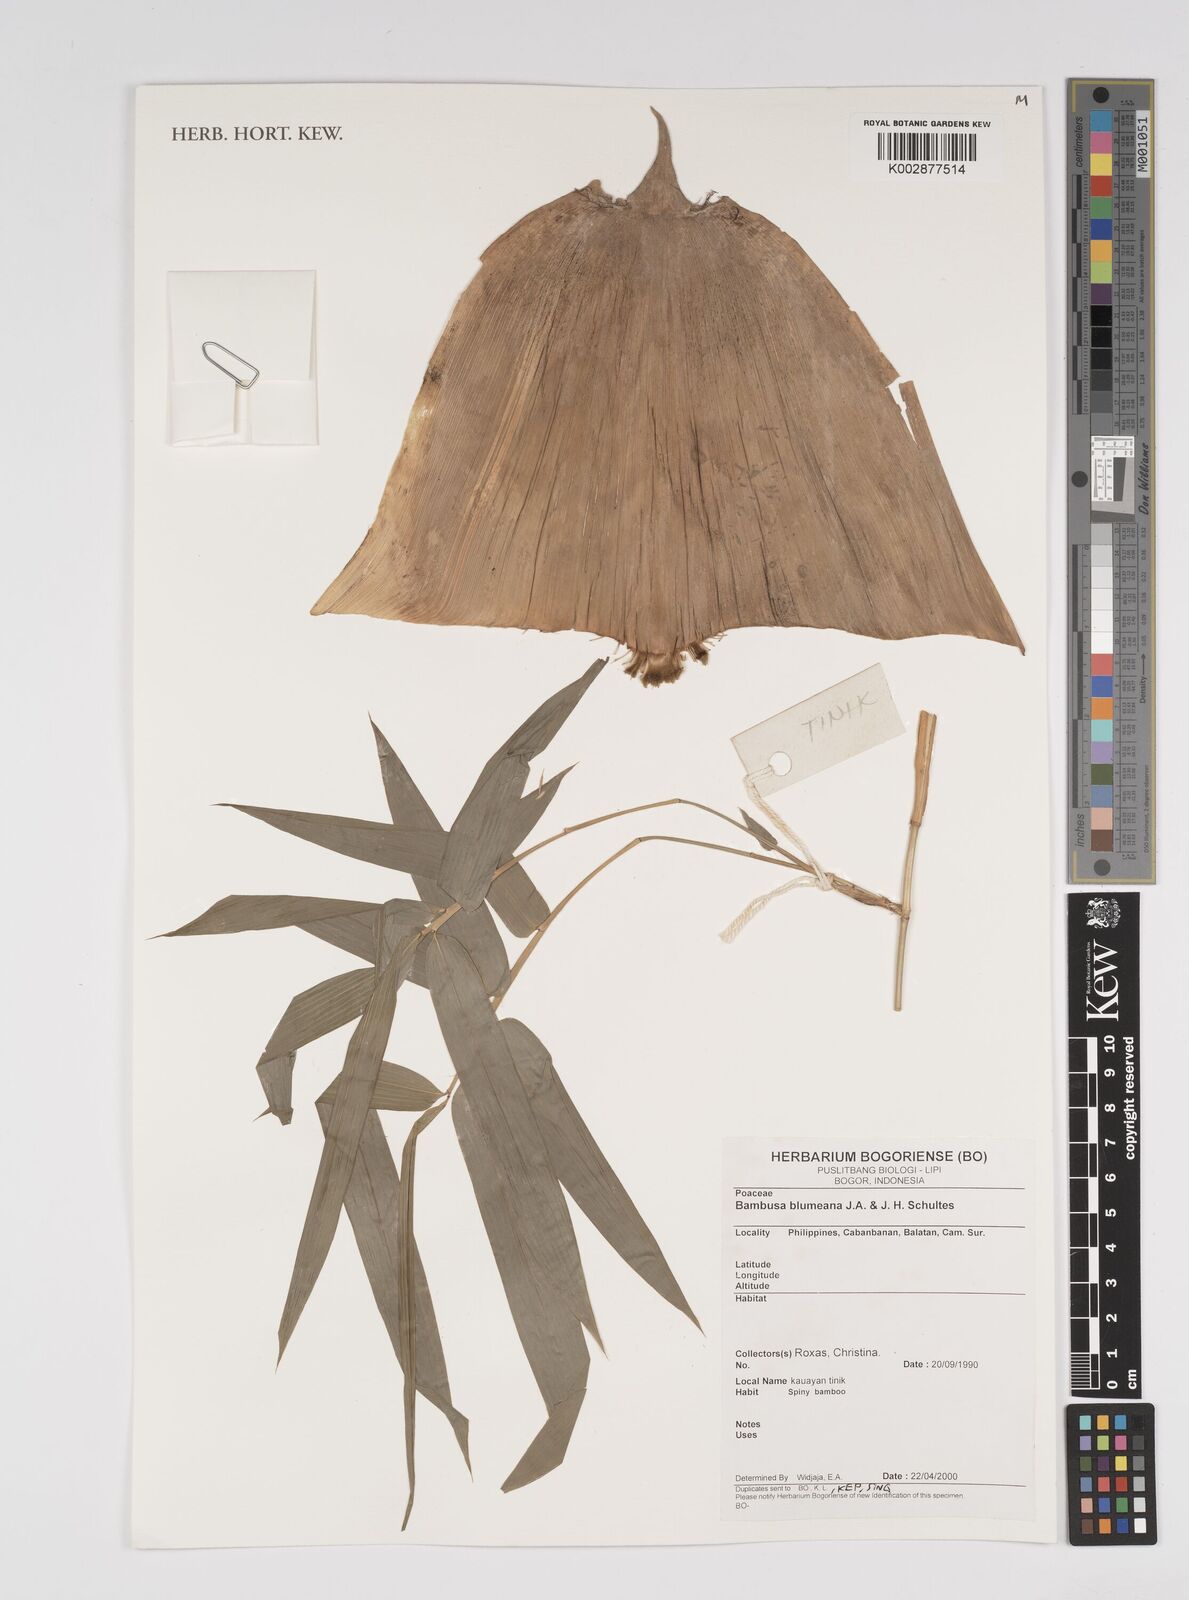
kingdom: Plantae
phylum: Tracheophyta
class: Liliopsida
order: Poales
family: Poaceae
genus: Bambusa
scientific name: Bambusa spinosa
